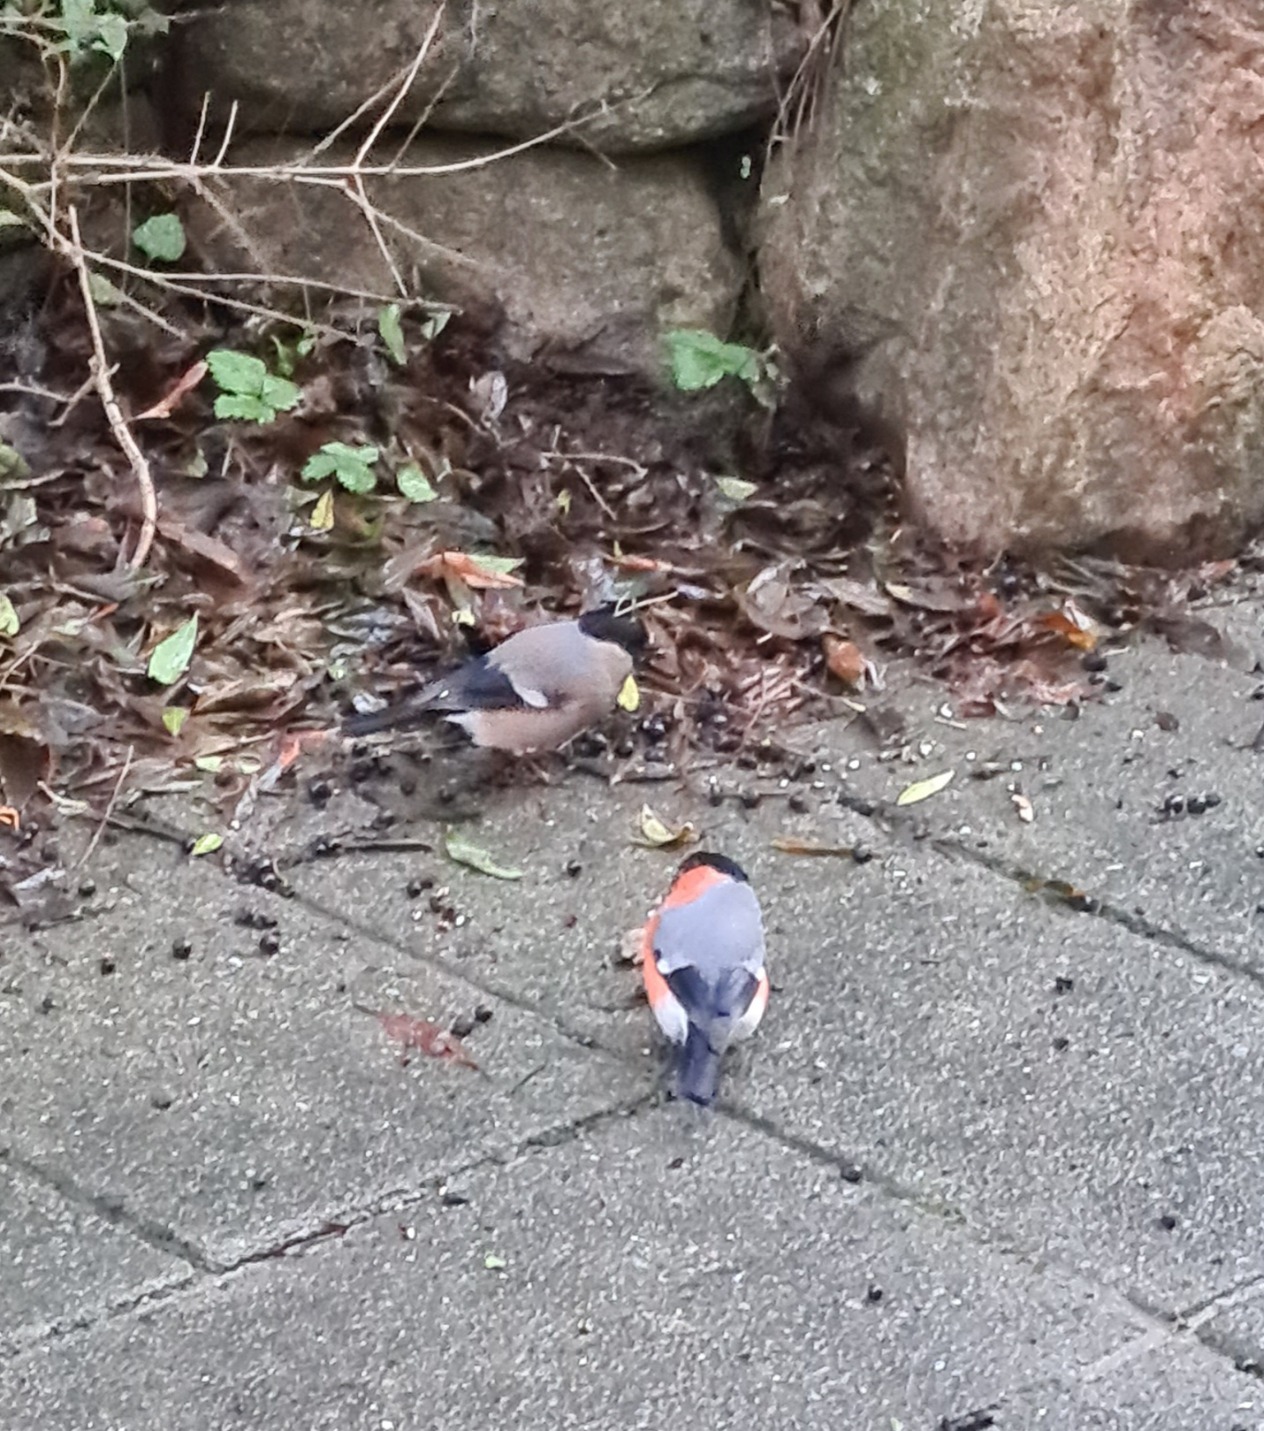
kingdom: Animalia
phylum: Chordata
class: Aves
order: Passeriformes
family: Fringillidae
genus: Pyrrhula
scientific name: Pyrrhula pyrrhula
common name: Dompap
